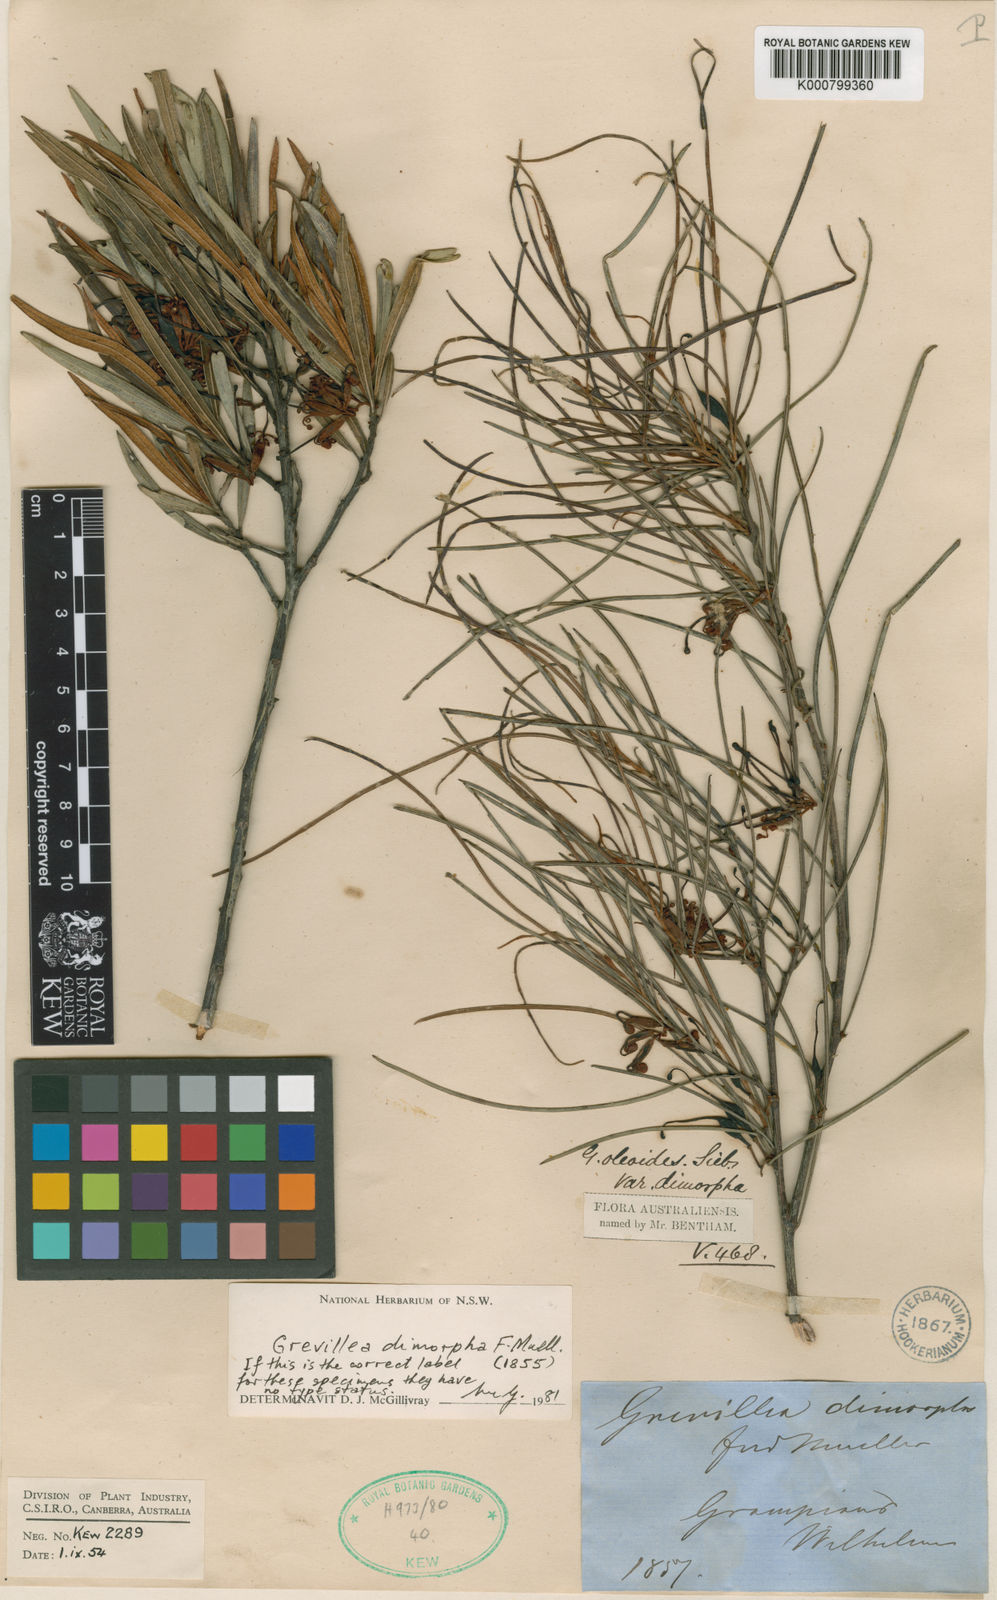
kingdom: Plantae
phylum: Tracheophyta
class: Magnoliopsida
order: Proteales
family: Proteaceae
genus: Grevillea
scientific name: Grevillea dimorpha
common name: Flame grevillea
